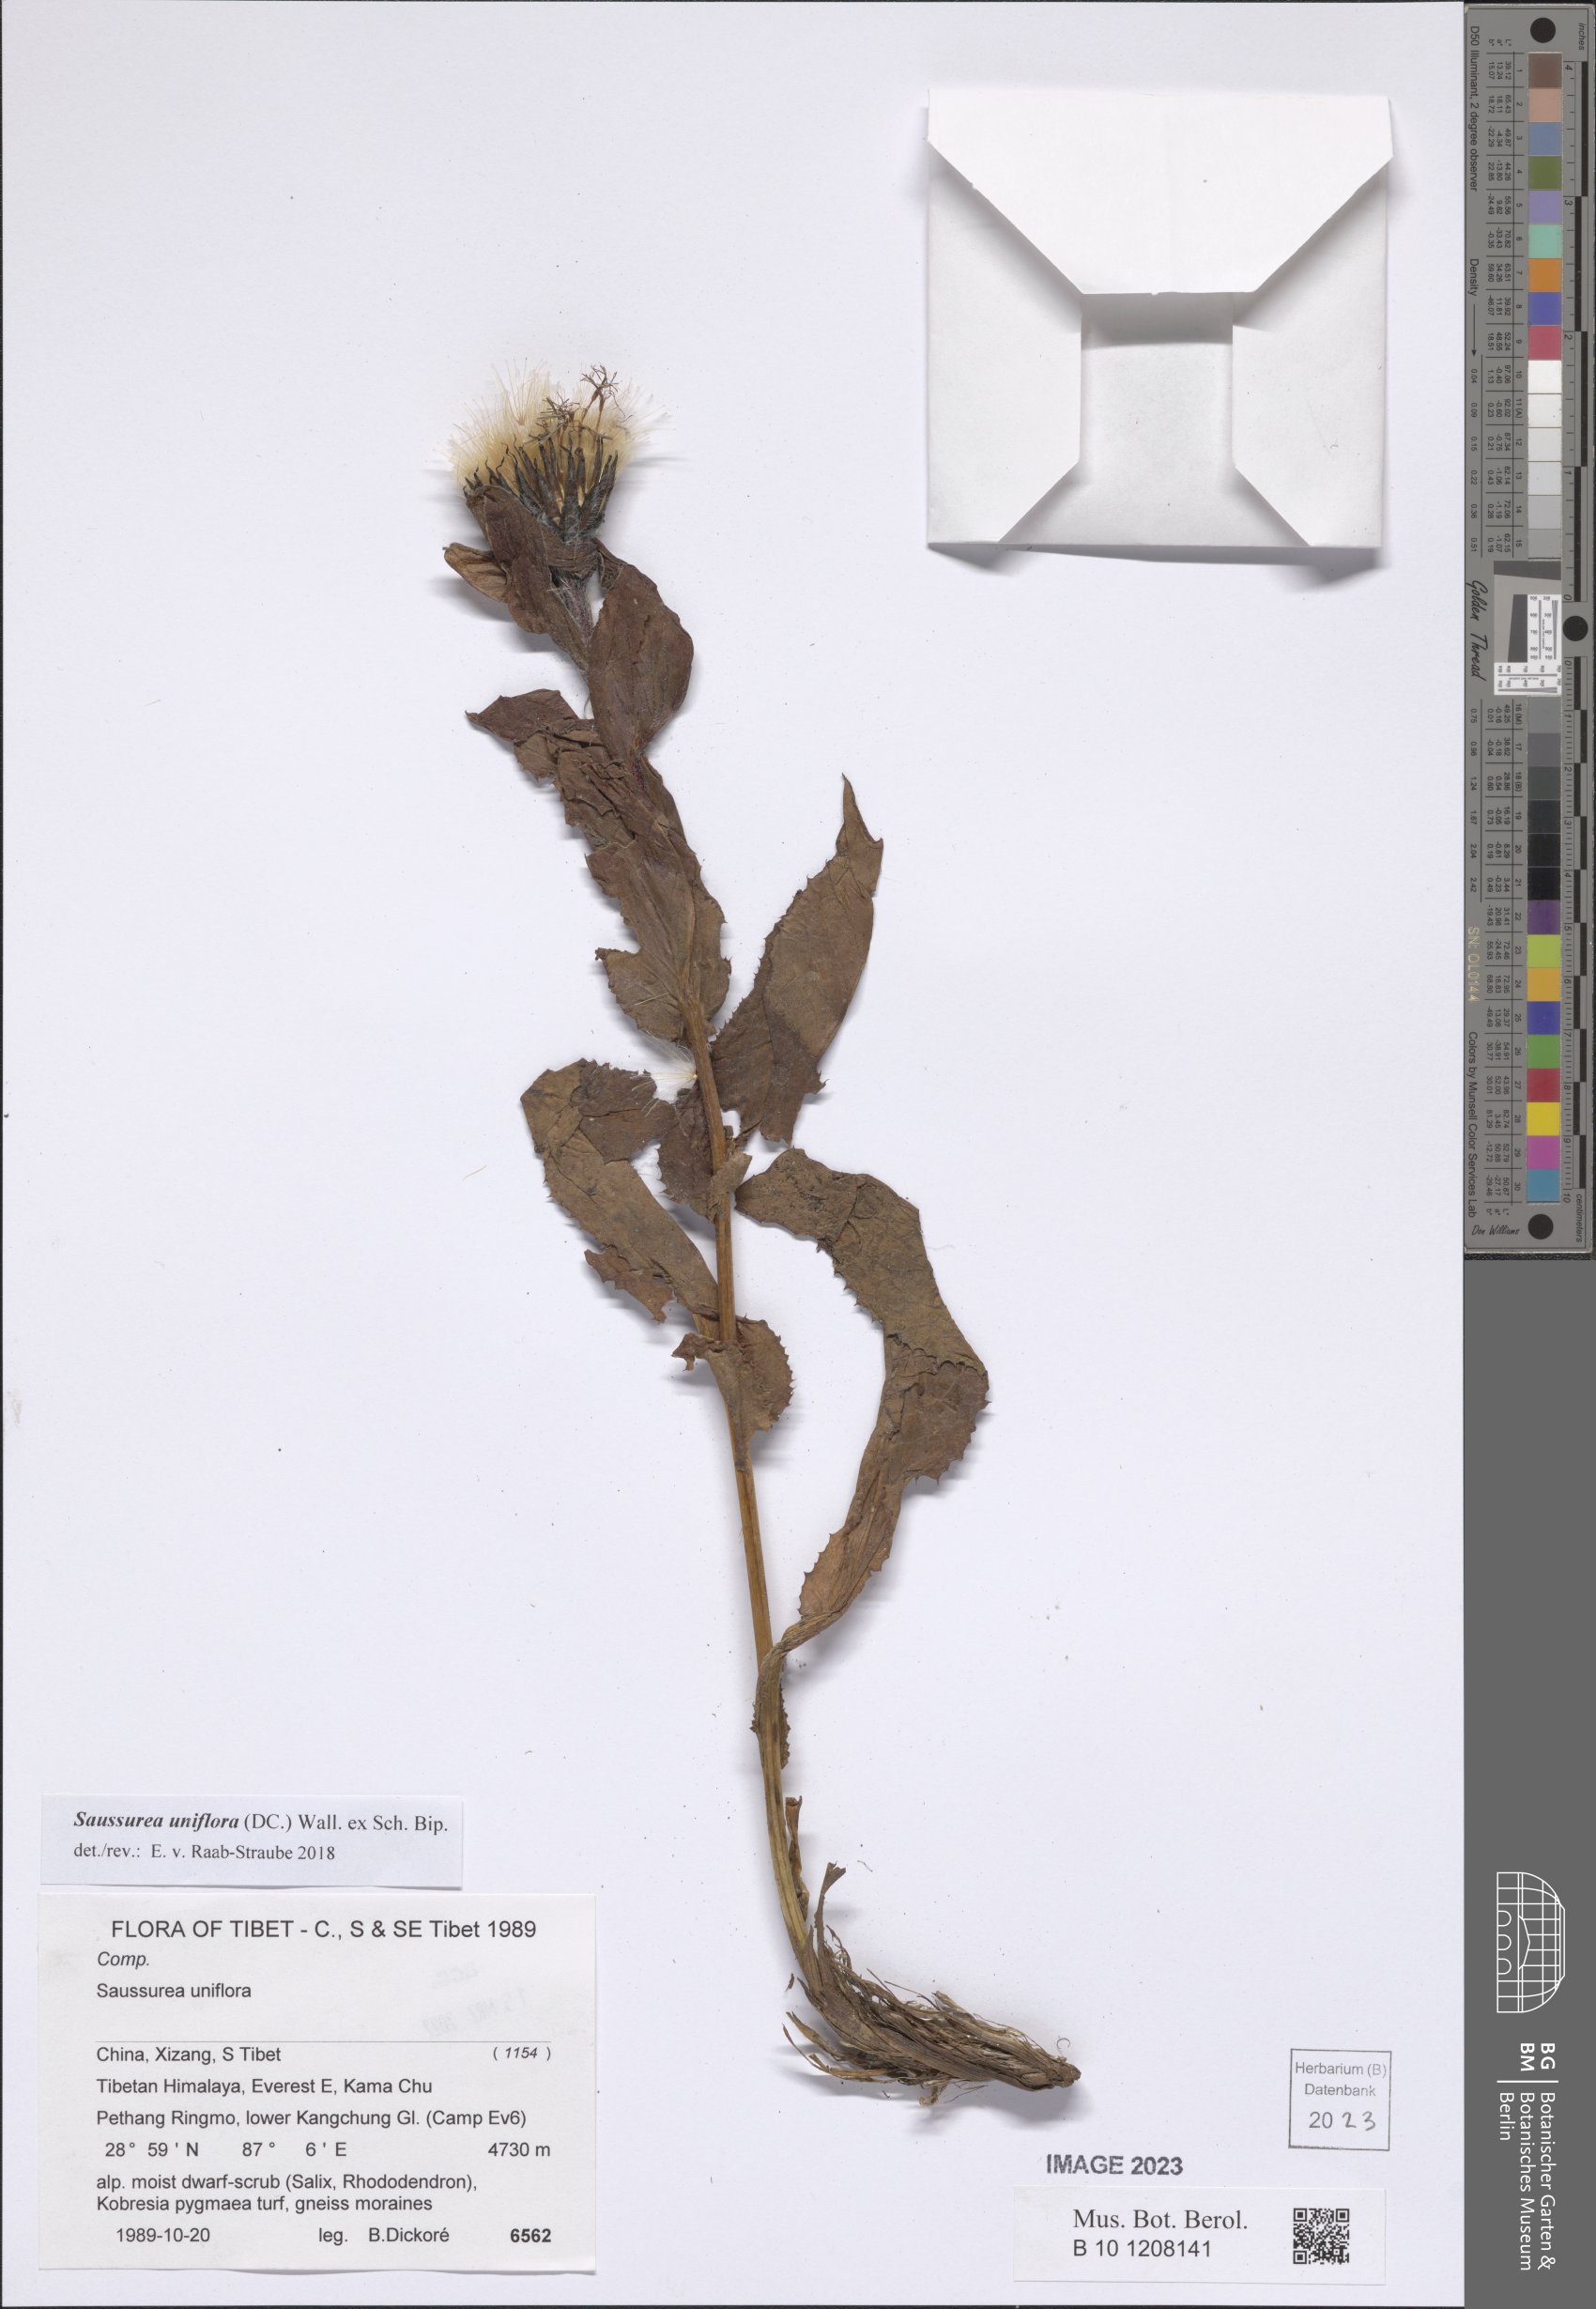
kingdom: Plantae
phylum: Tracheophyta
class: Magnoliopsida
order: Asterales
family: Asteraceae
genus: Saussurea
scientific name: Saussurea uniflora
